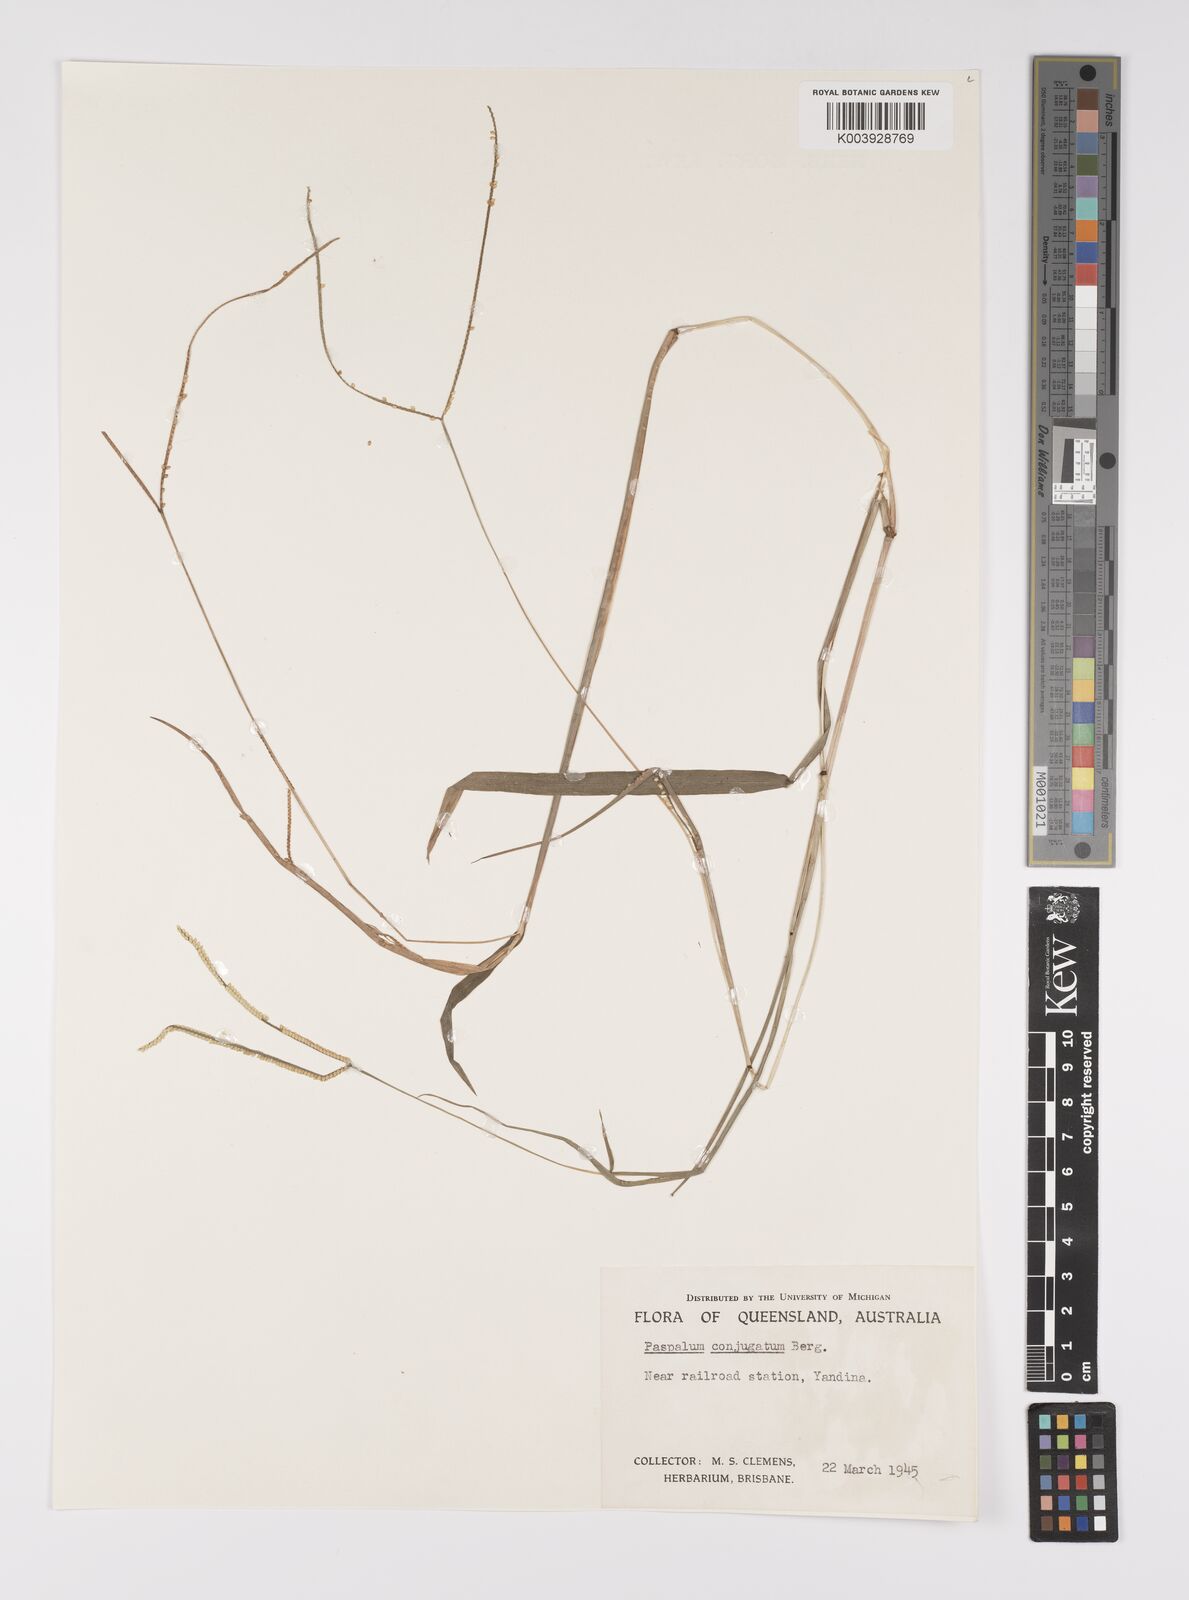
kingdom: Plantae
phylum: Tracheophyta
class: Liliopsida
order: Poales
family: Poaceae
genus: Paspalum
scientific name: Paspalum conjugatum
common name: Hilograss
